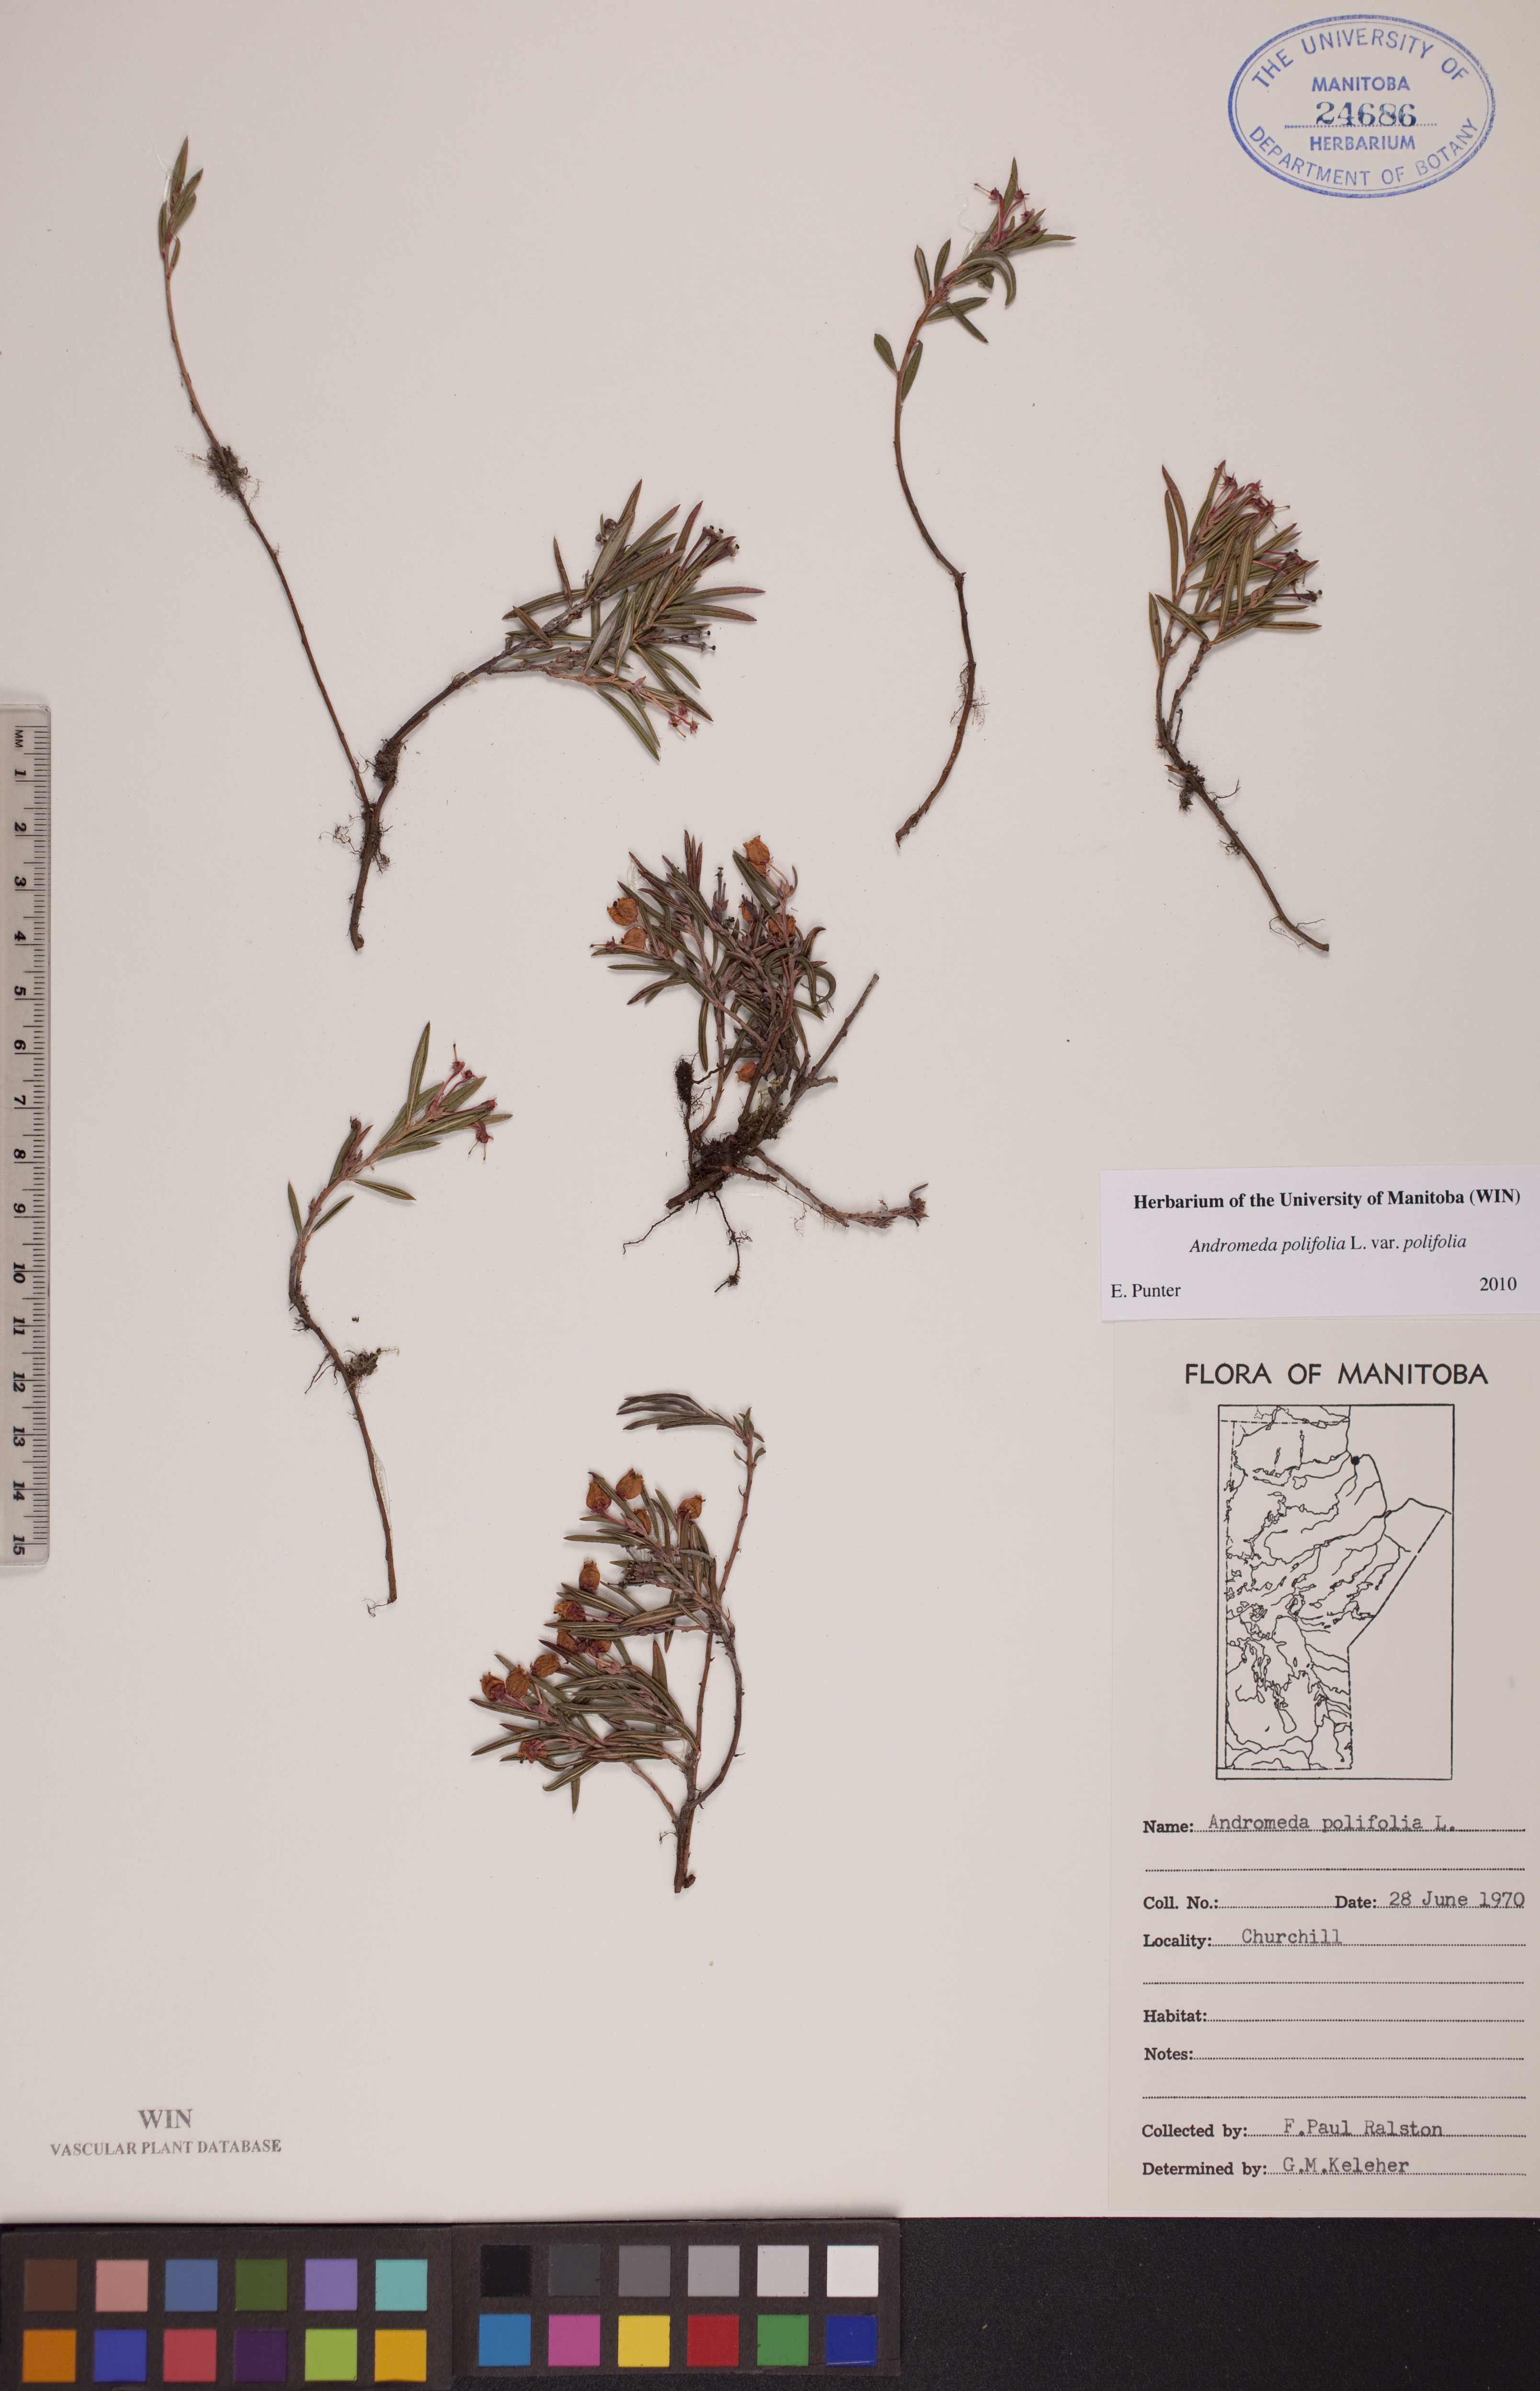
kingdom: Plantae
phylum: Tracheophyta
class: Magnoliopsida
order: Ericales
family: Ericaceae
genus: Andromeda
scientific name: Andromeda polifolia
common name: Bog-rosemary
